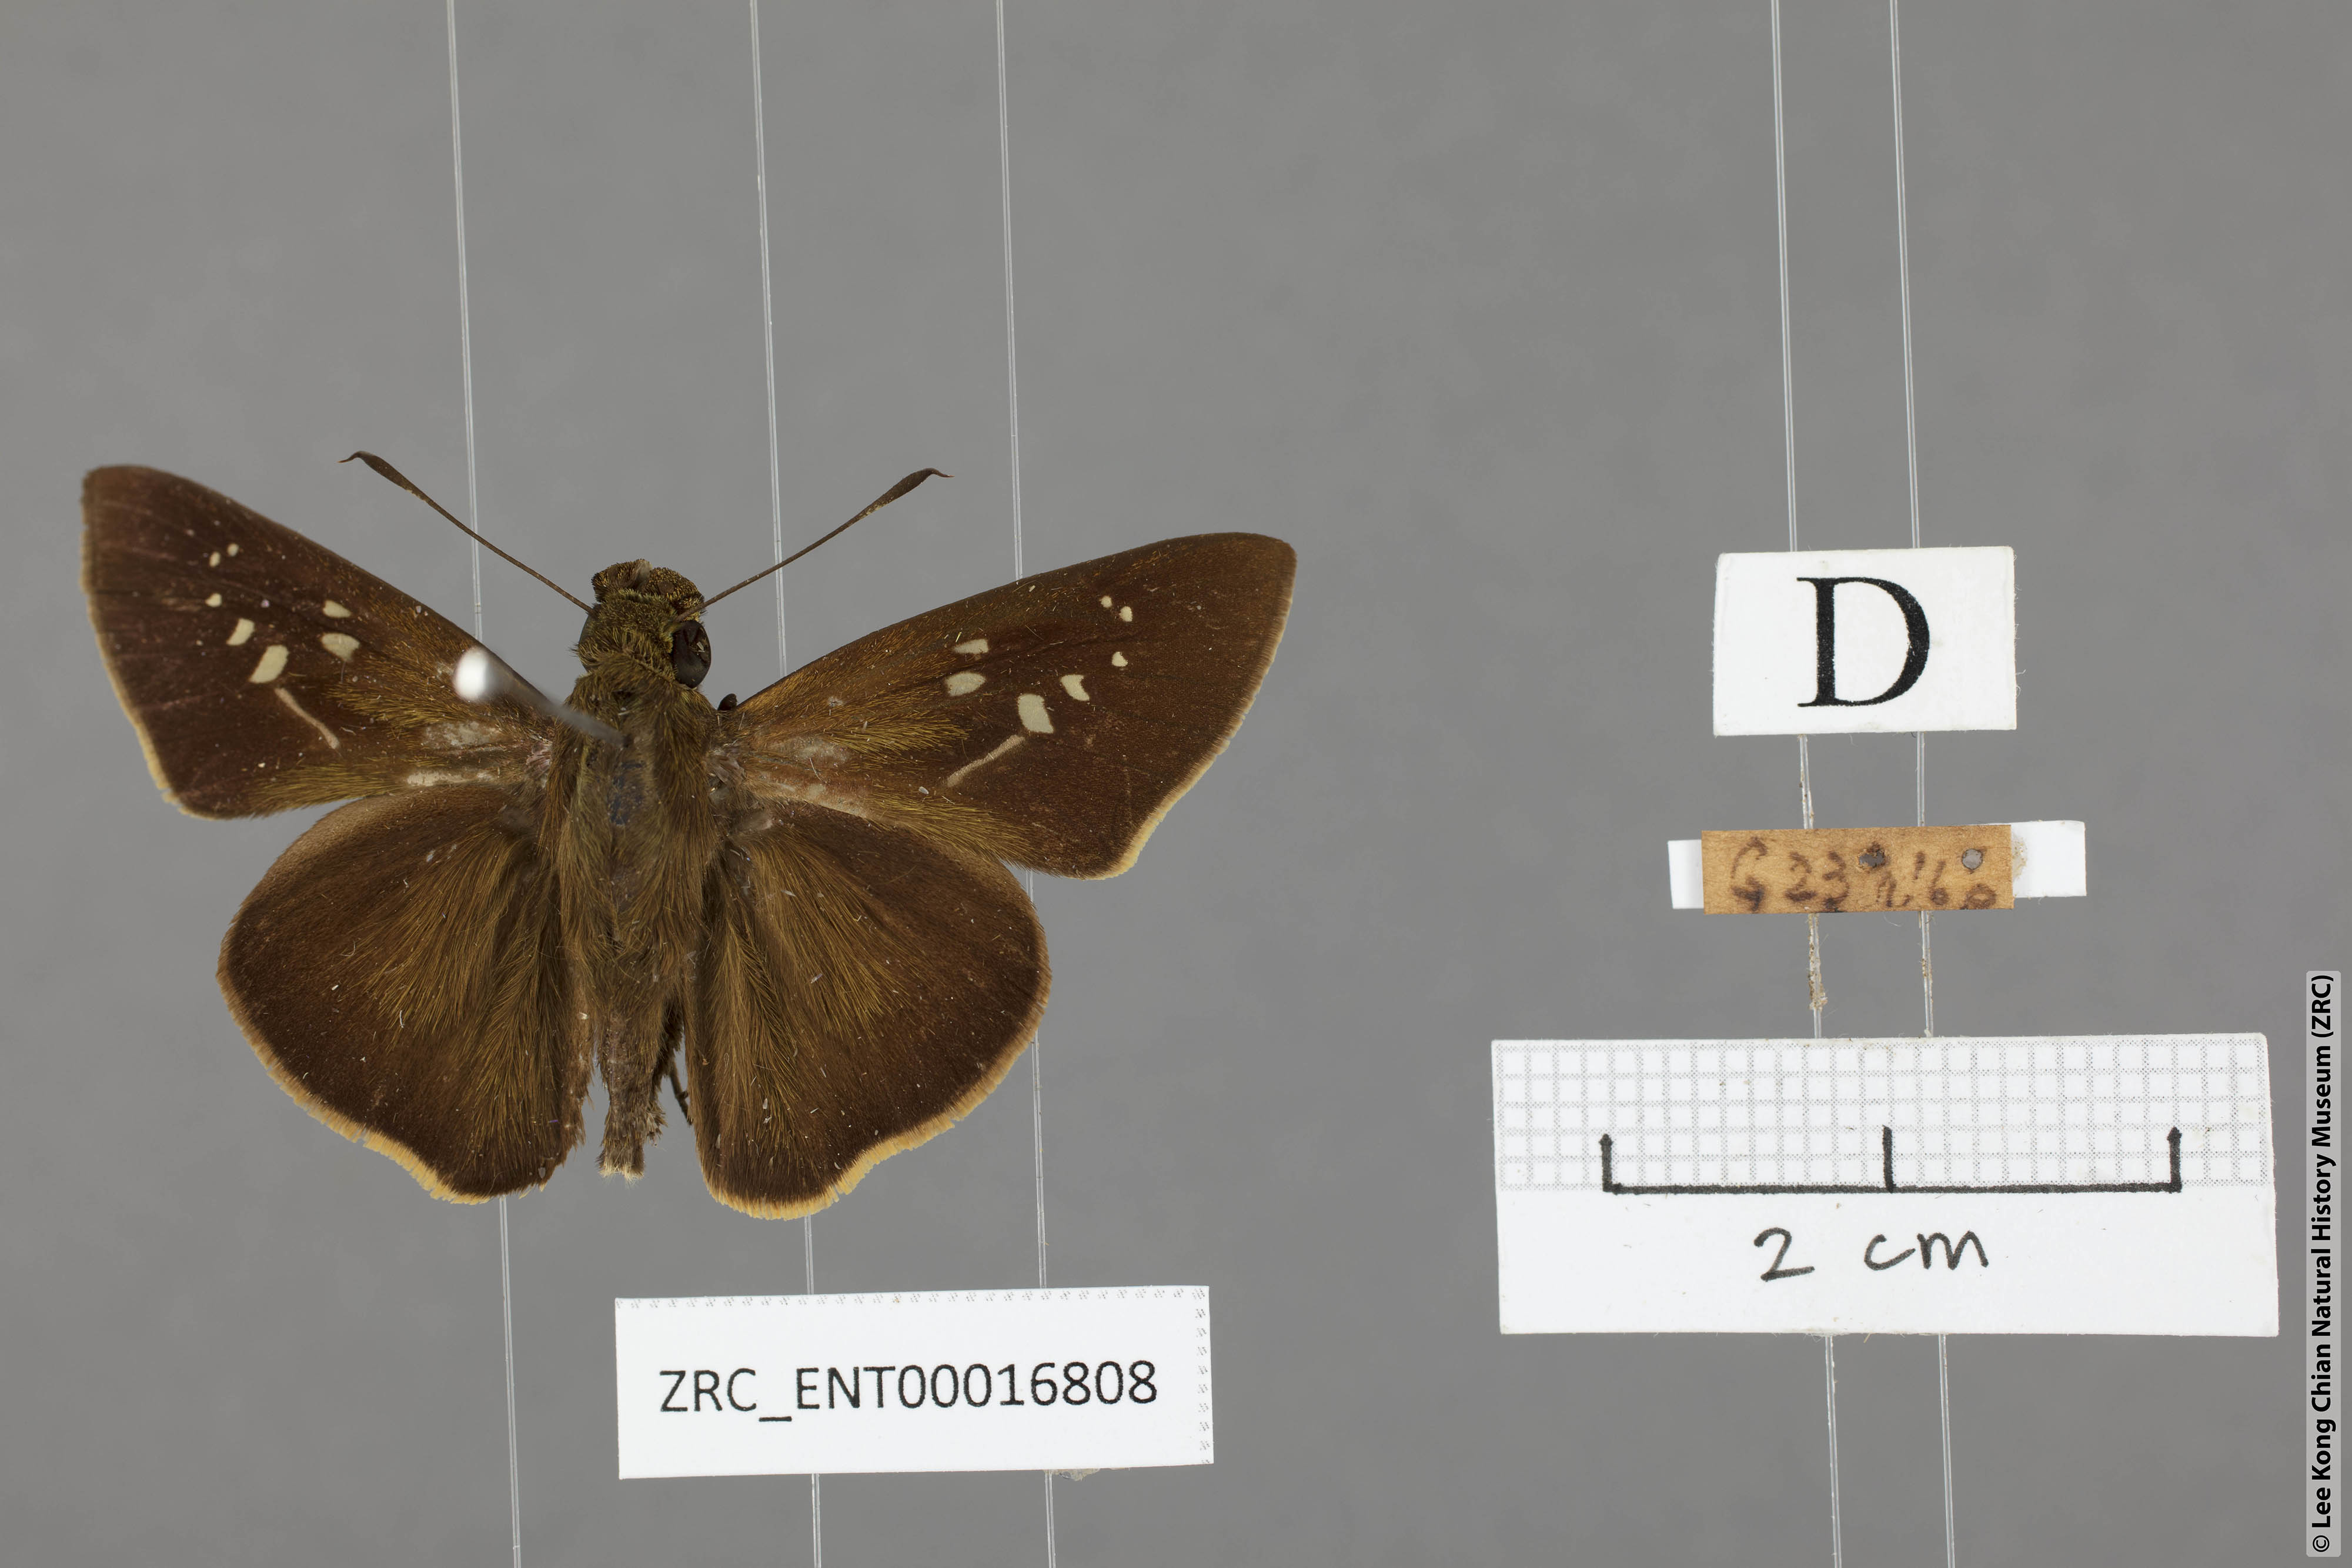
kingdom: Animalia
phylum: Arthropoda
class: Insecta
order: Lepidoptera
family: Hesperiidae
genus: Caltoris
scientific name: Caltoris brunnea
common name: Dark branded swift
